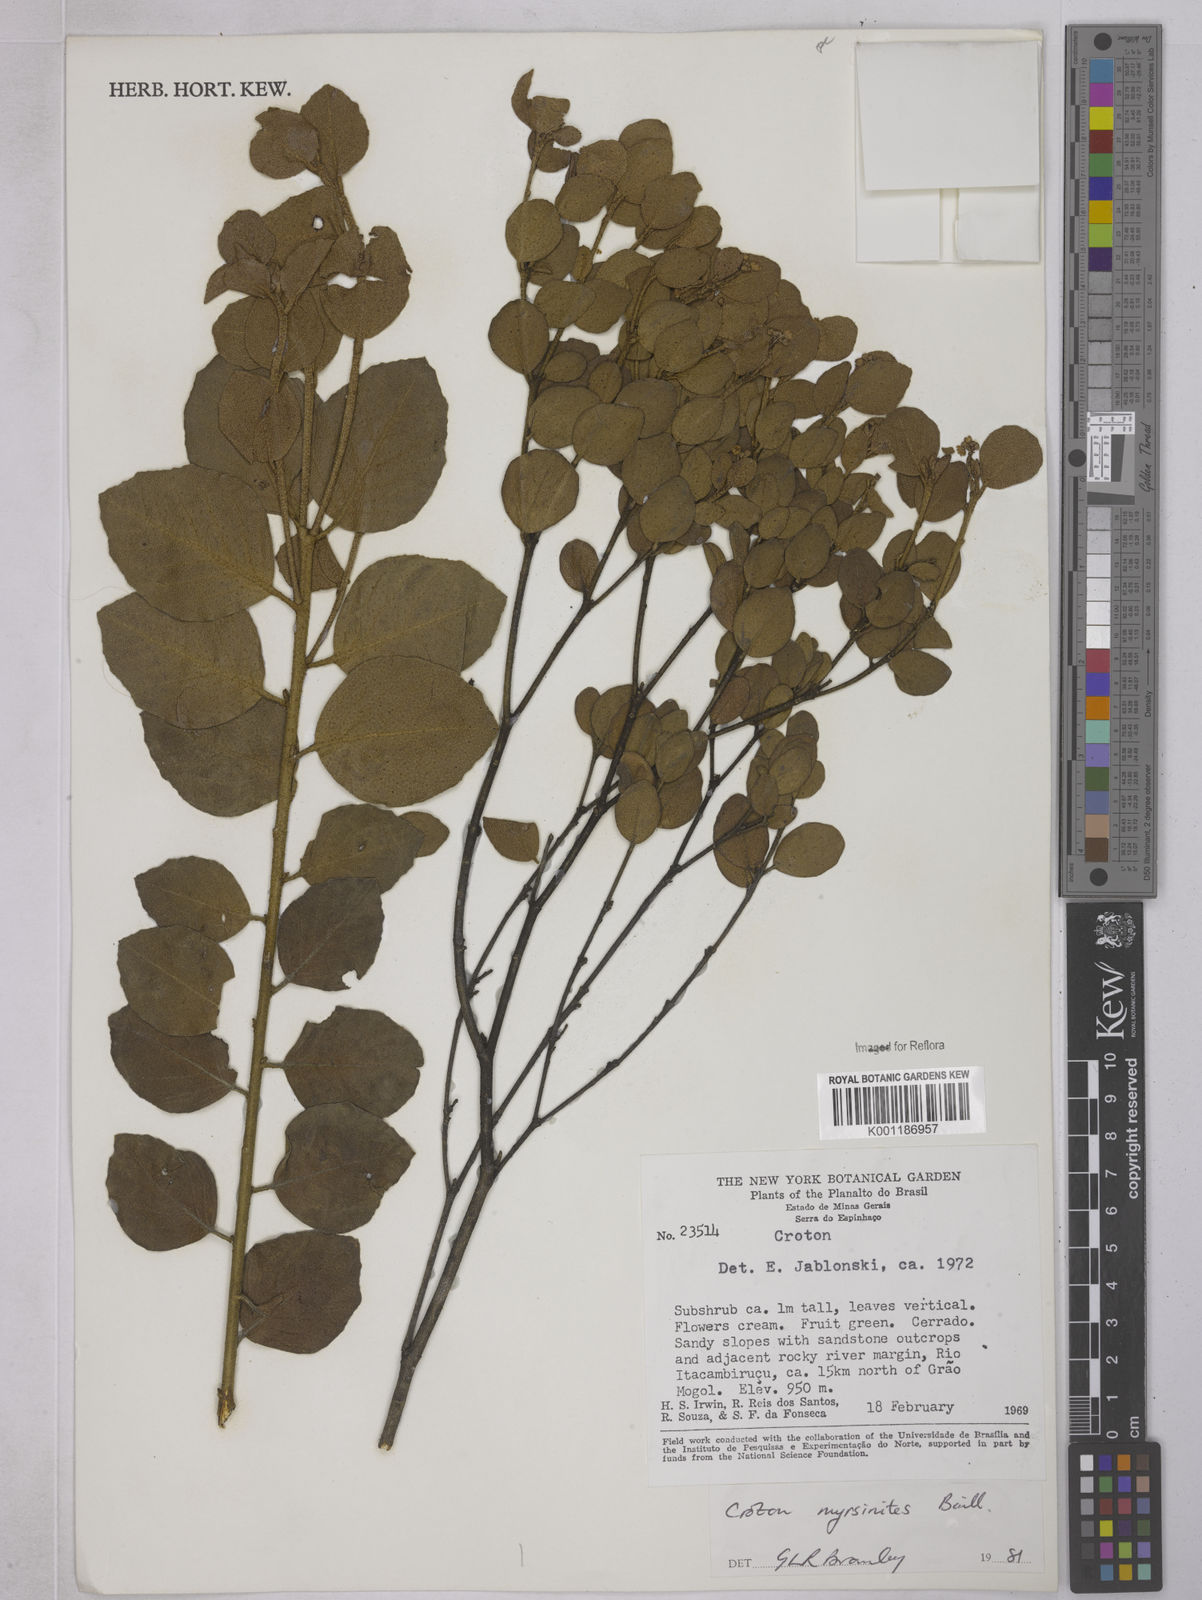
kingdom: Plantae
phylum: Tracheophyta
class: Magnoliopsida
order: Malpighiales
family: Euphorbiaceae
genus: Croton
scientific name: Croton myrsinites
